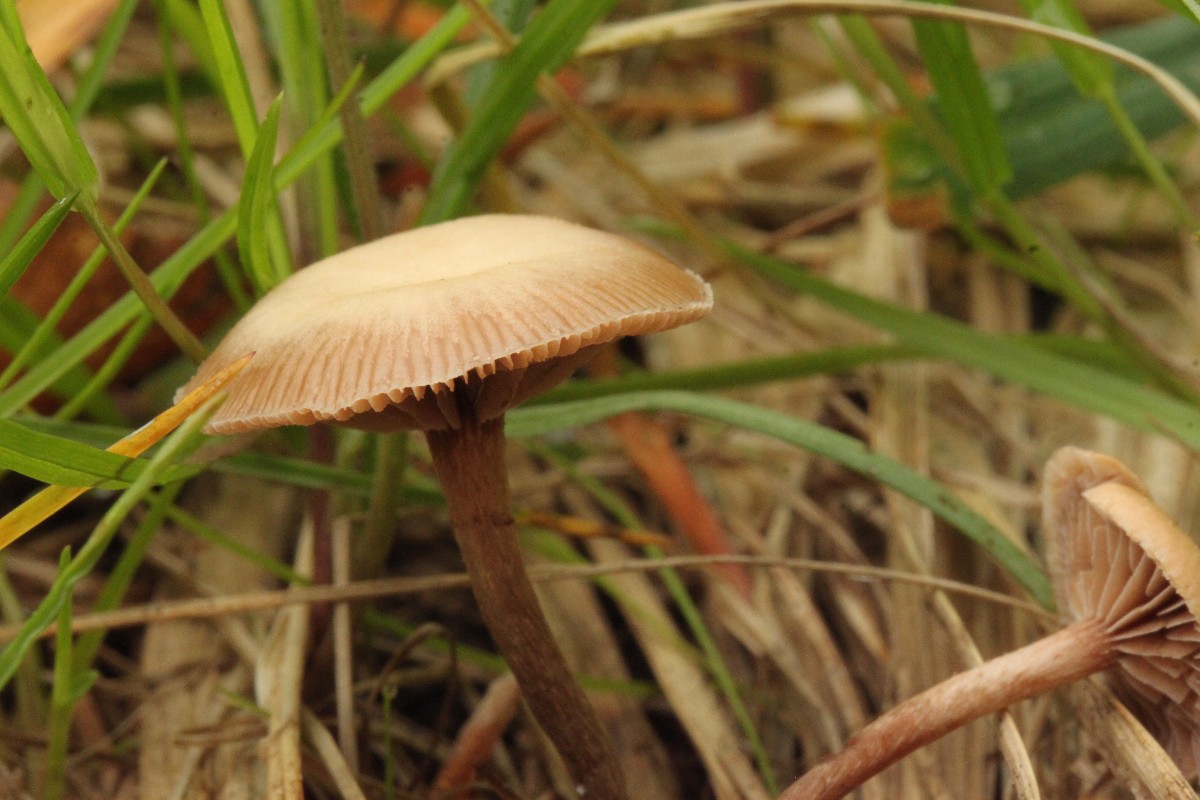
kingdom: Fungi
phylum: Basidiomycota
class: Agaricomycetes
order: Agaricales
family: Strophariaceae
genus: Deconica
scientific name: Deconica inquilina
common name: græs-stråhat
